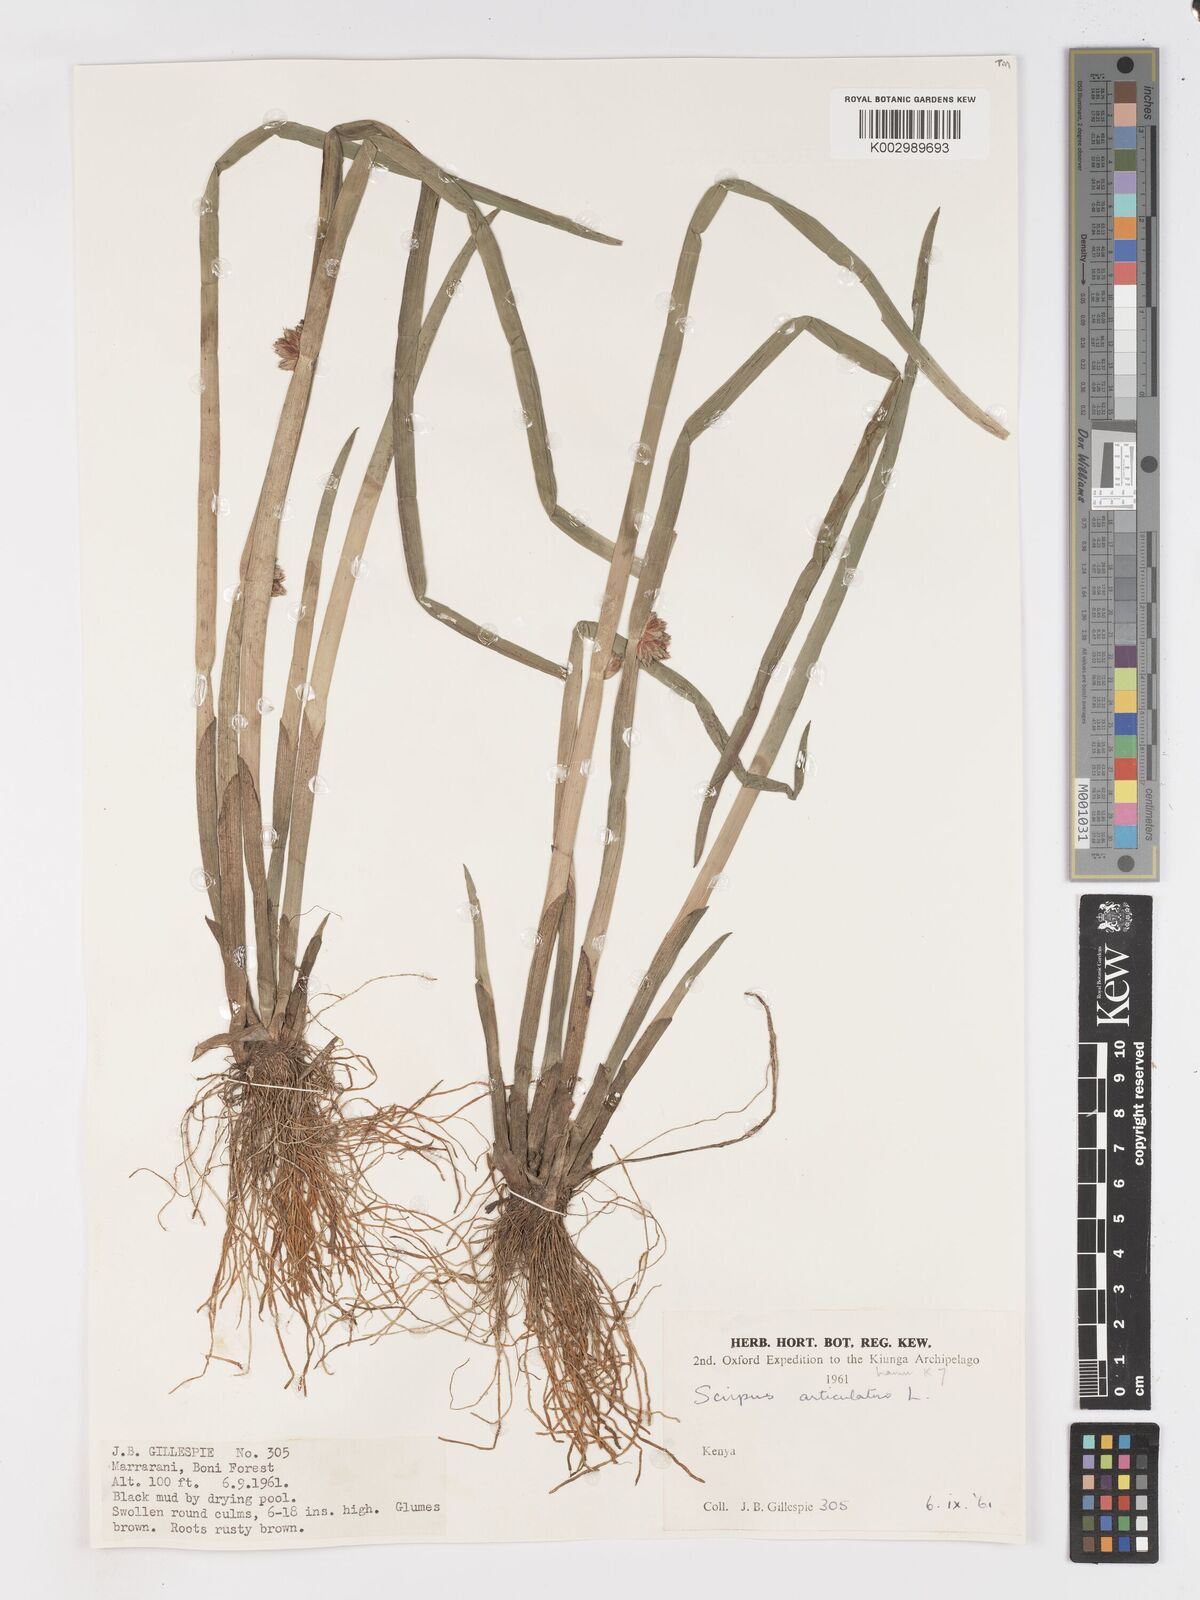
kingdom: Plantae
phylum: Tracheophyta
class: Liliopsida
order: Poales
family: Cyperaceae
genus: Schoenoplectiella
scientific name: Schoenoplectiella articulata
